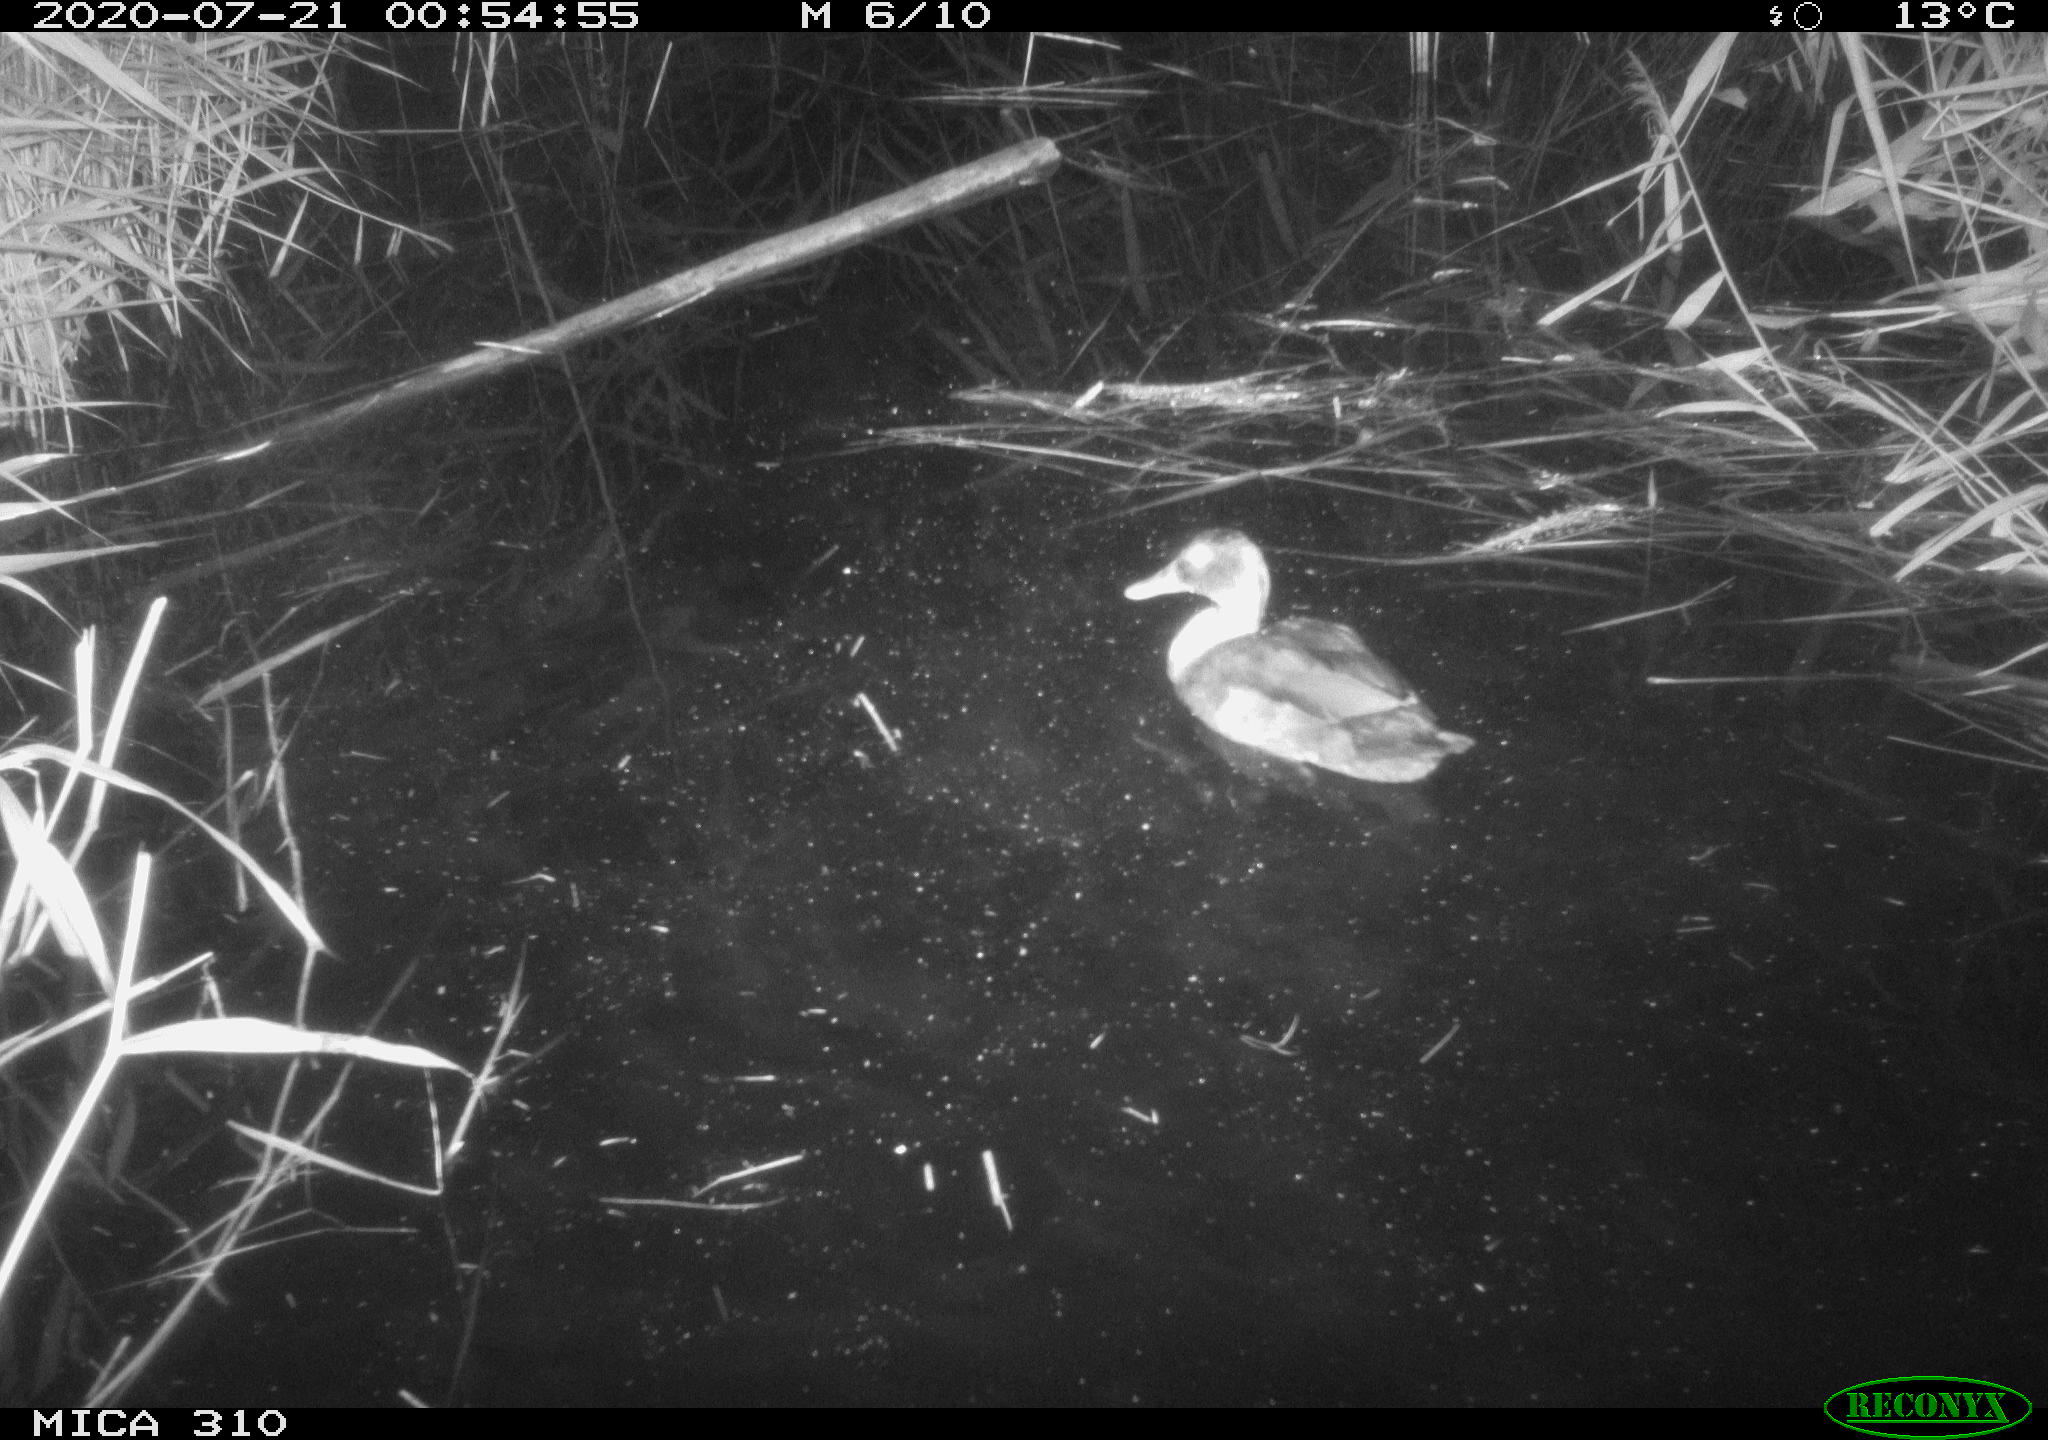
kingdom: Animalia
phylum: Chordata
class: Aves
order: Gruiformes
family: Rallidae
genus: Gallinula
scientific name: Gallinula chloropus
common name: Common moorhen
